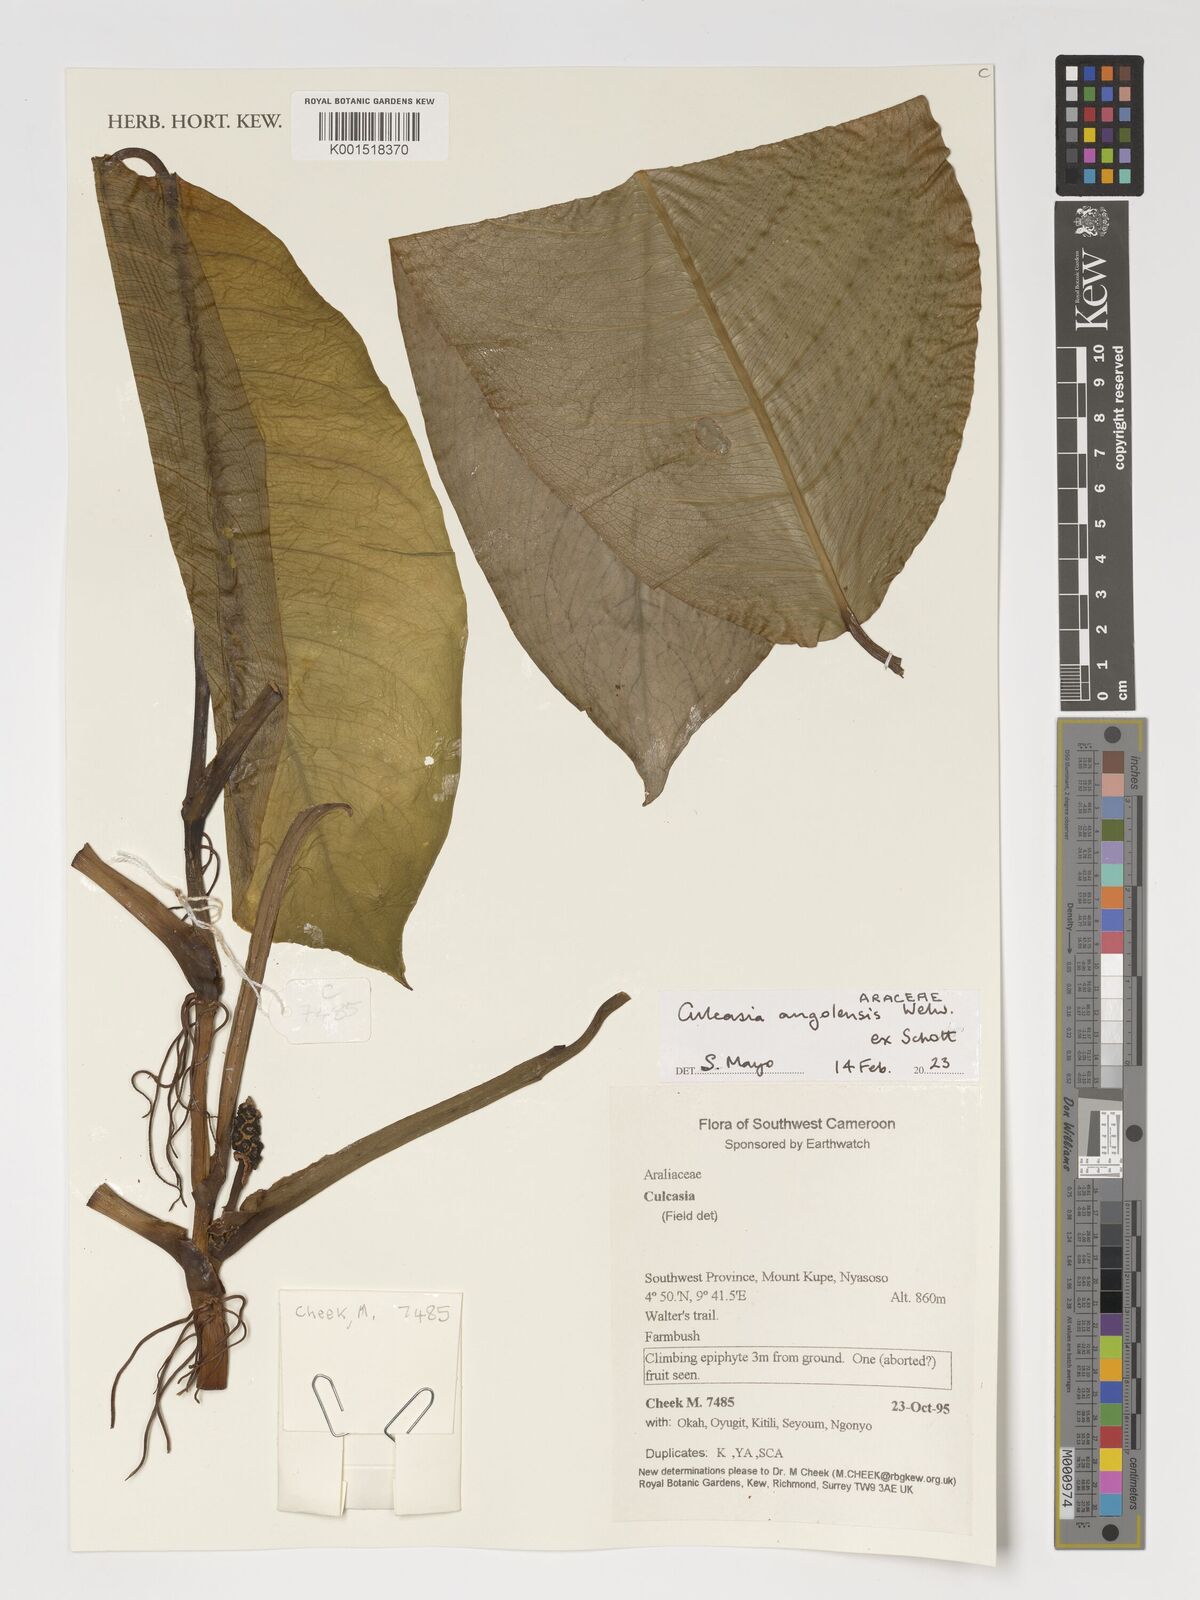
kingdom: Plantae
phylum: Tracheophyta
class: Liliopsida
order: Alismatales
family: Araceae
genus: Culcasia
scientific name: Culcasia angolensis
